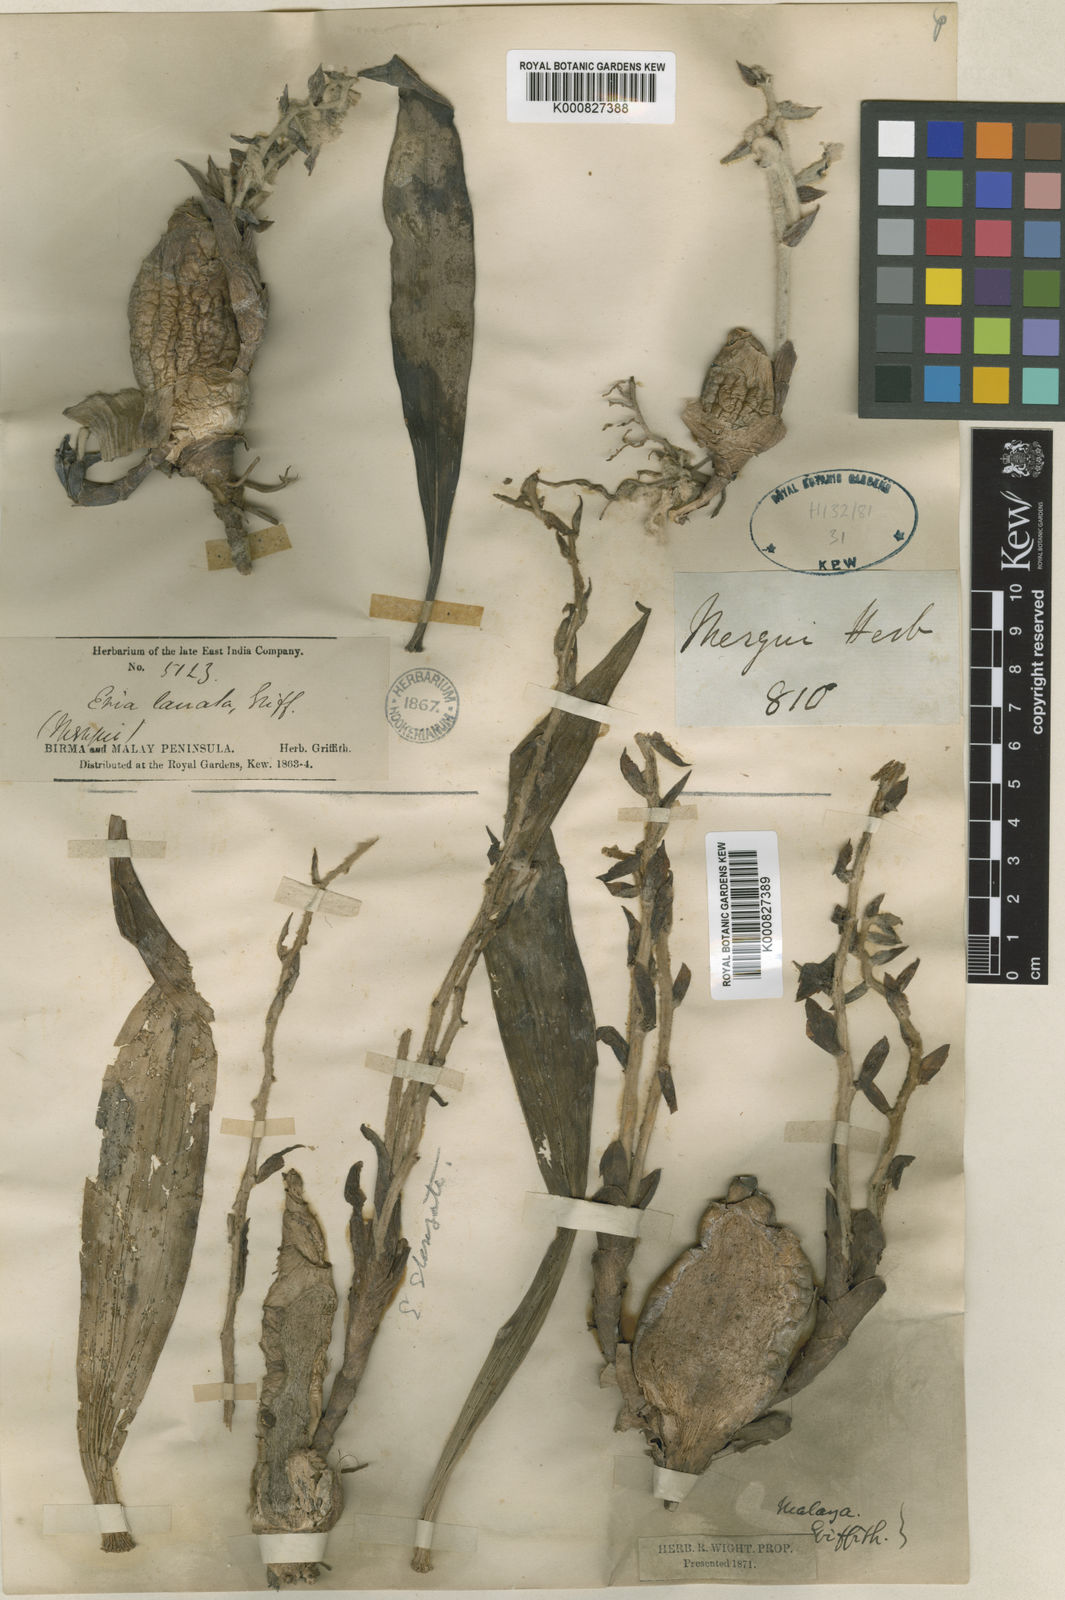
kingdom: Plantae
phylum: Tracheophyta
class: Liliopsida
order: Asparagales
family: Orchidaceae
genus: Dendrolirium
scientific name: Dendrolirium lasiopetalum
